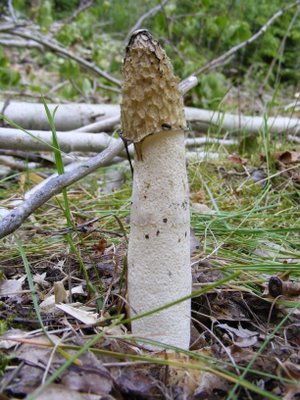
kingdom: Fungi
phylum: Basidiomycota
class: Agaricomycetes
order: Phallales
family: Phallaceae
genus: Phallus
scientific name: Phallus impudicus
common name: almindelig stinksvamp
